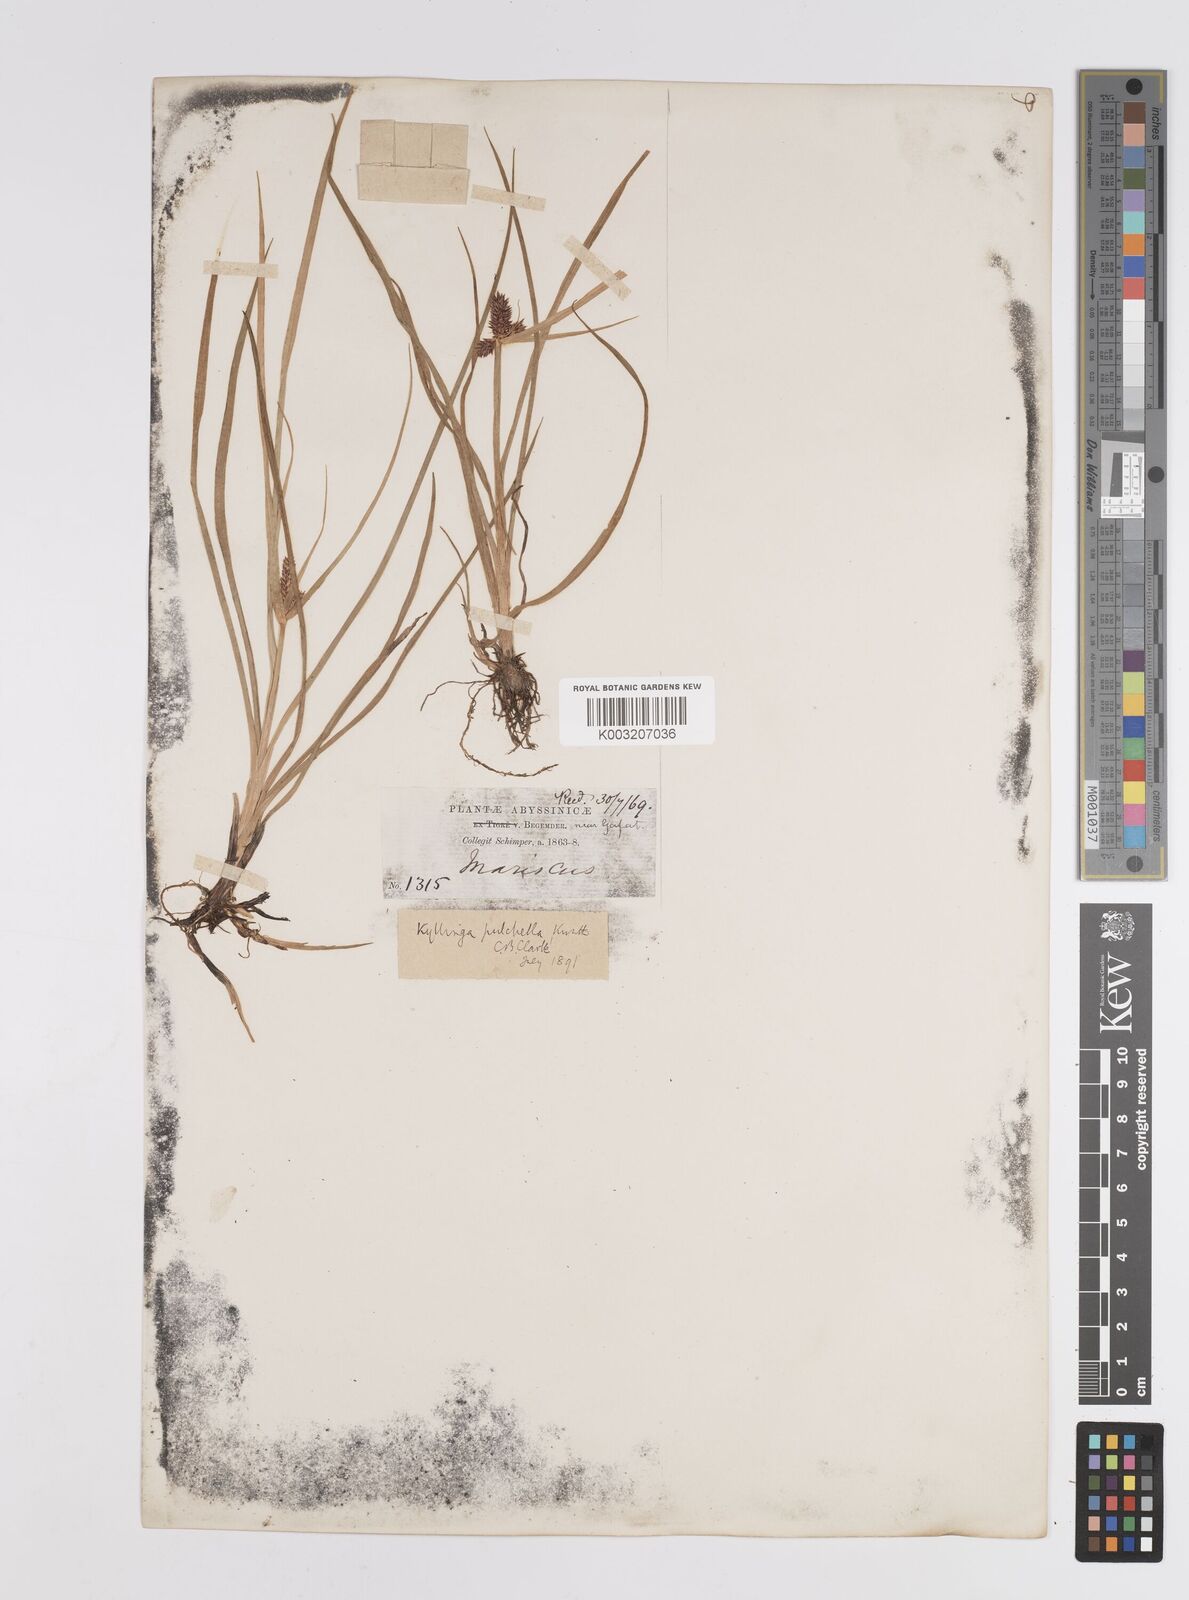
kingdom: Plantae
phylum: Tracheophyta
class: Liliopsida
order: Poales
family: Cyperaceae
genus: Cyperus
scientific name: Cyperus
